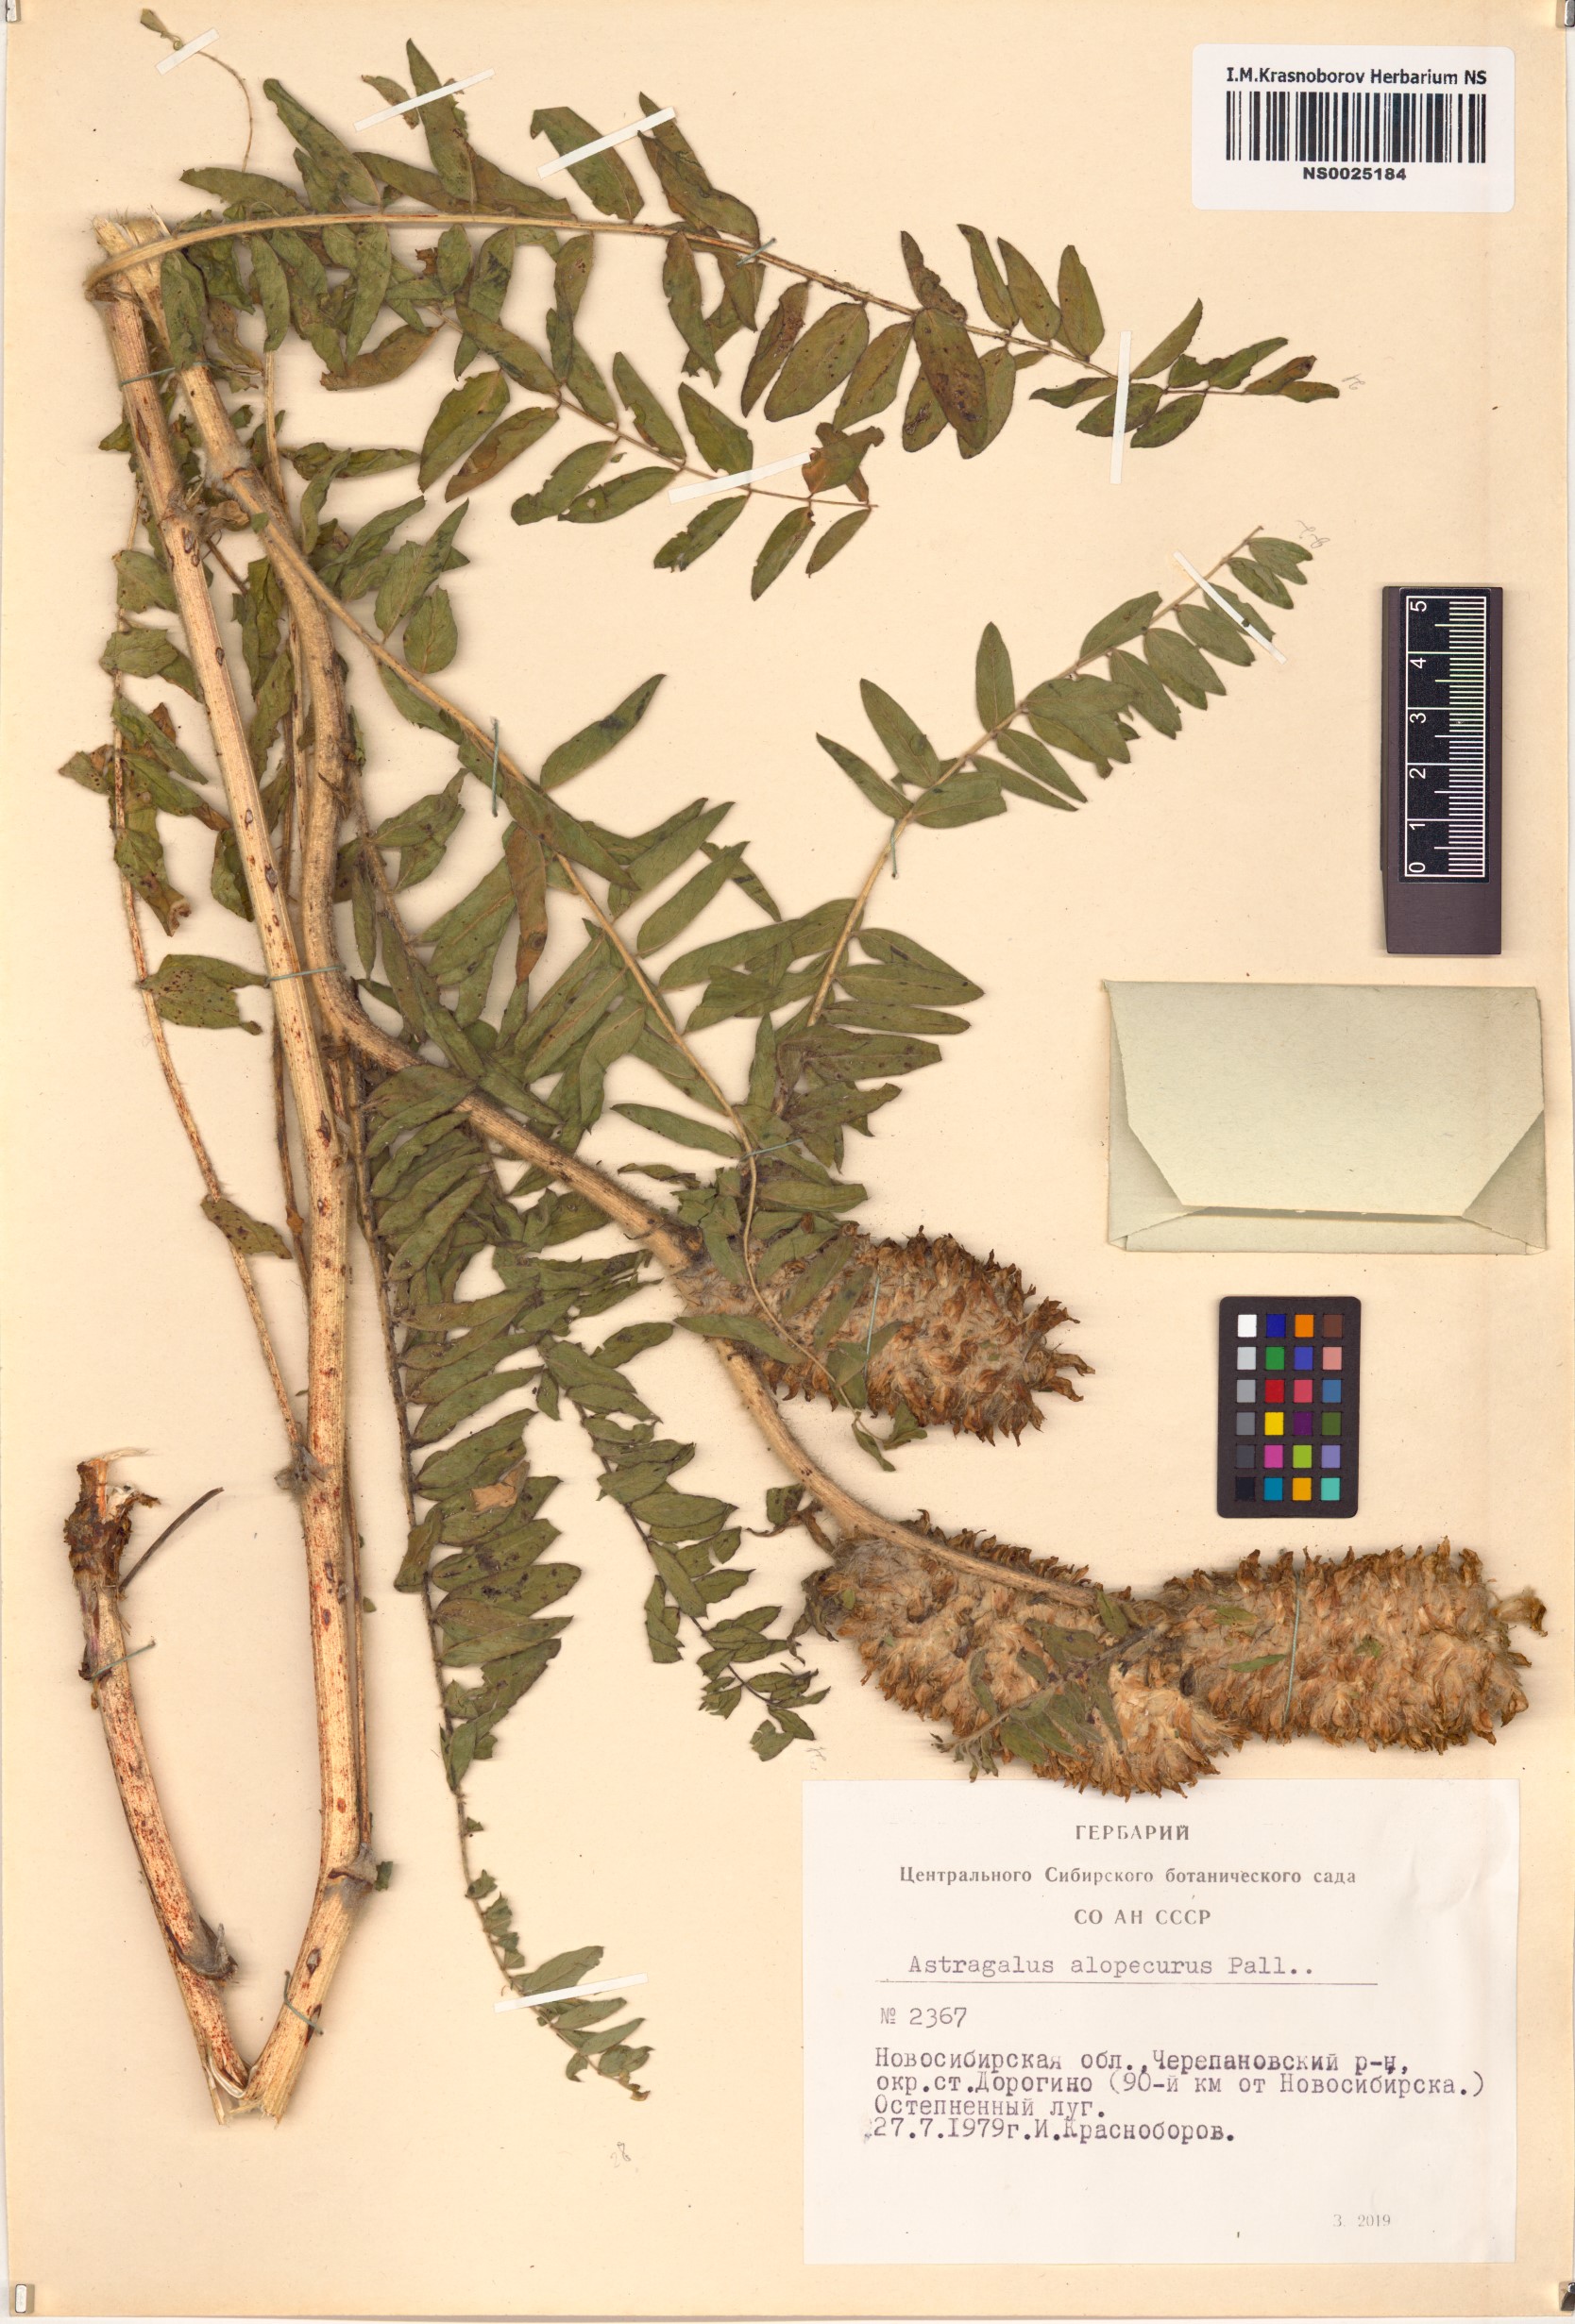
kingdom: Plantae
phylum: Tracheophyta
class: Magnoliopsida
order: Fabales
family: Fabaceae
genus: Astragalus
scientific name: Astragalus alopecurus
